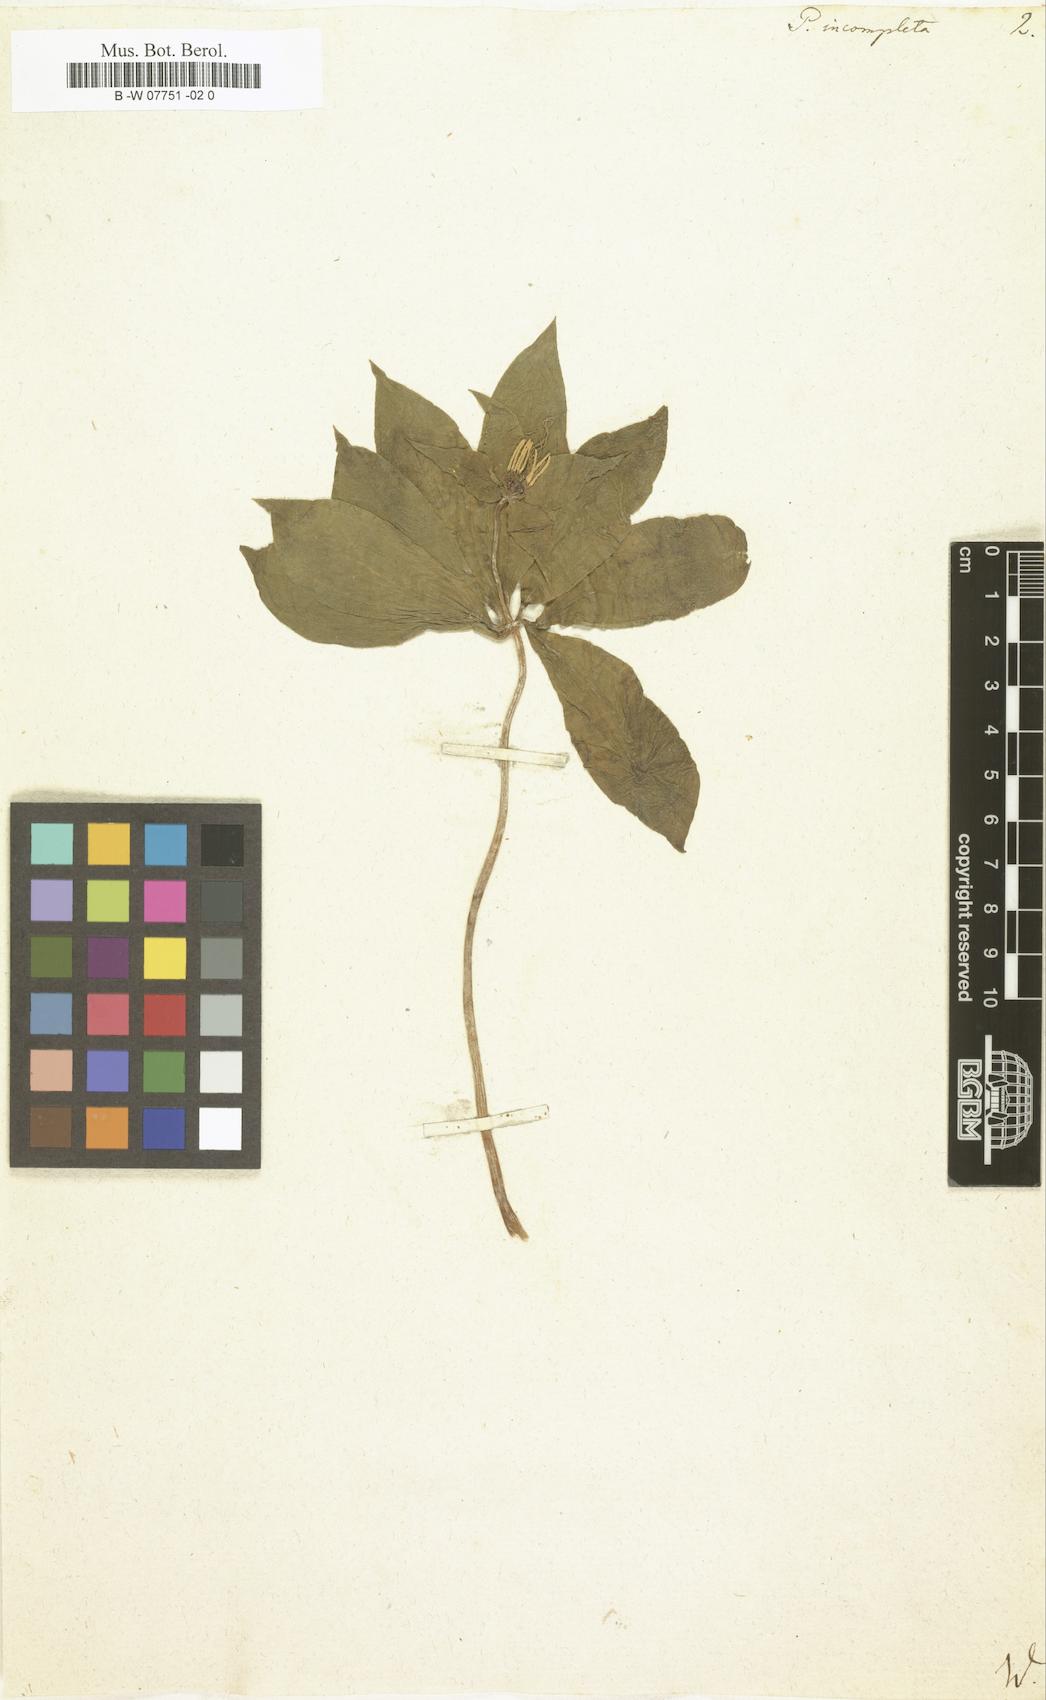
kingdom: Plantae
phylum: Tracheophyta
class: Liliopsida
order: Liliales
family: Melanthiaceae
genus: Paris
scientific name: Paris incompleta
